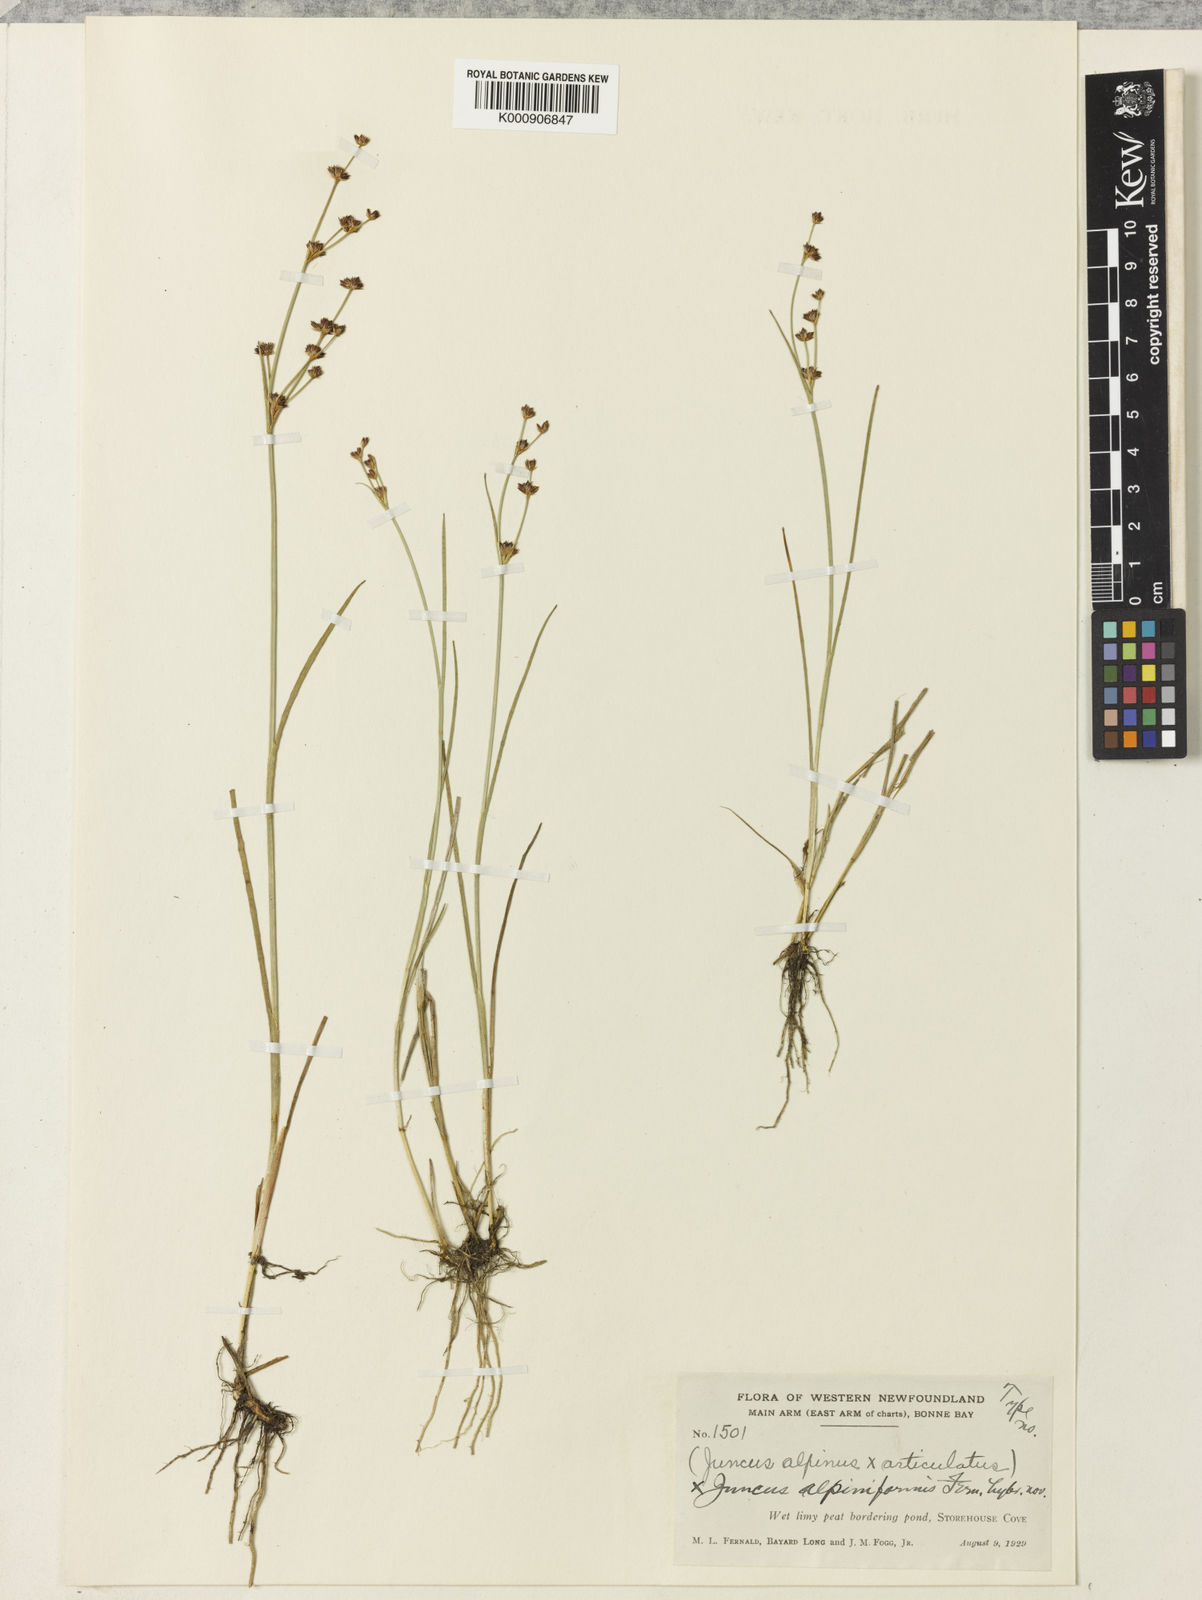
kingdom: Plantae
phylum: Tracheophyta
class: Liliopsida
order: Poales
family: Juncaceae
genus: Juncus
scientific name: Juncus alpiniformis
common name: Hybrid alpine rush
